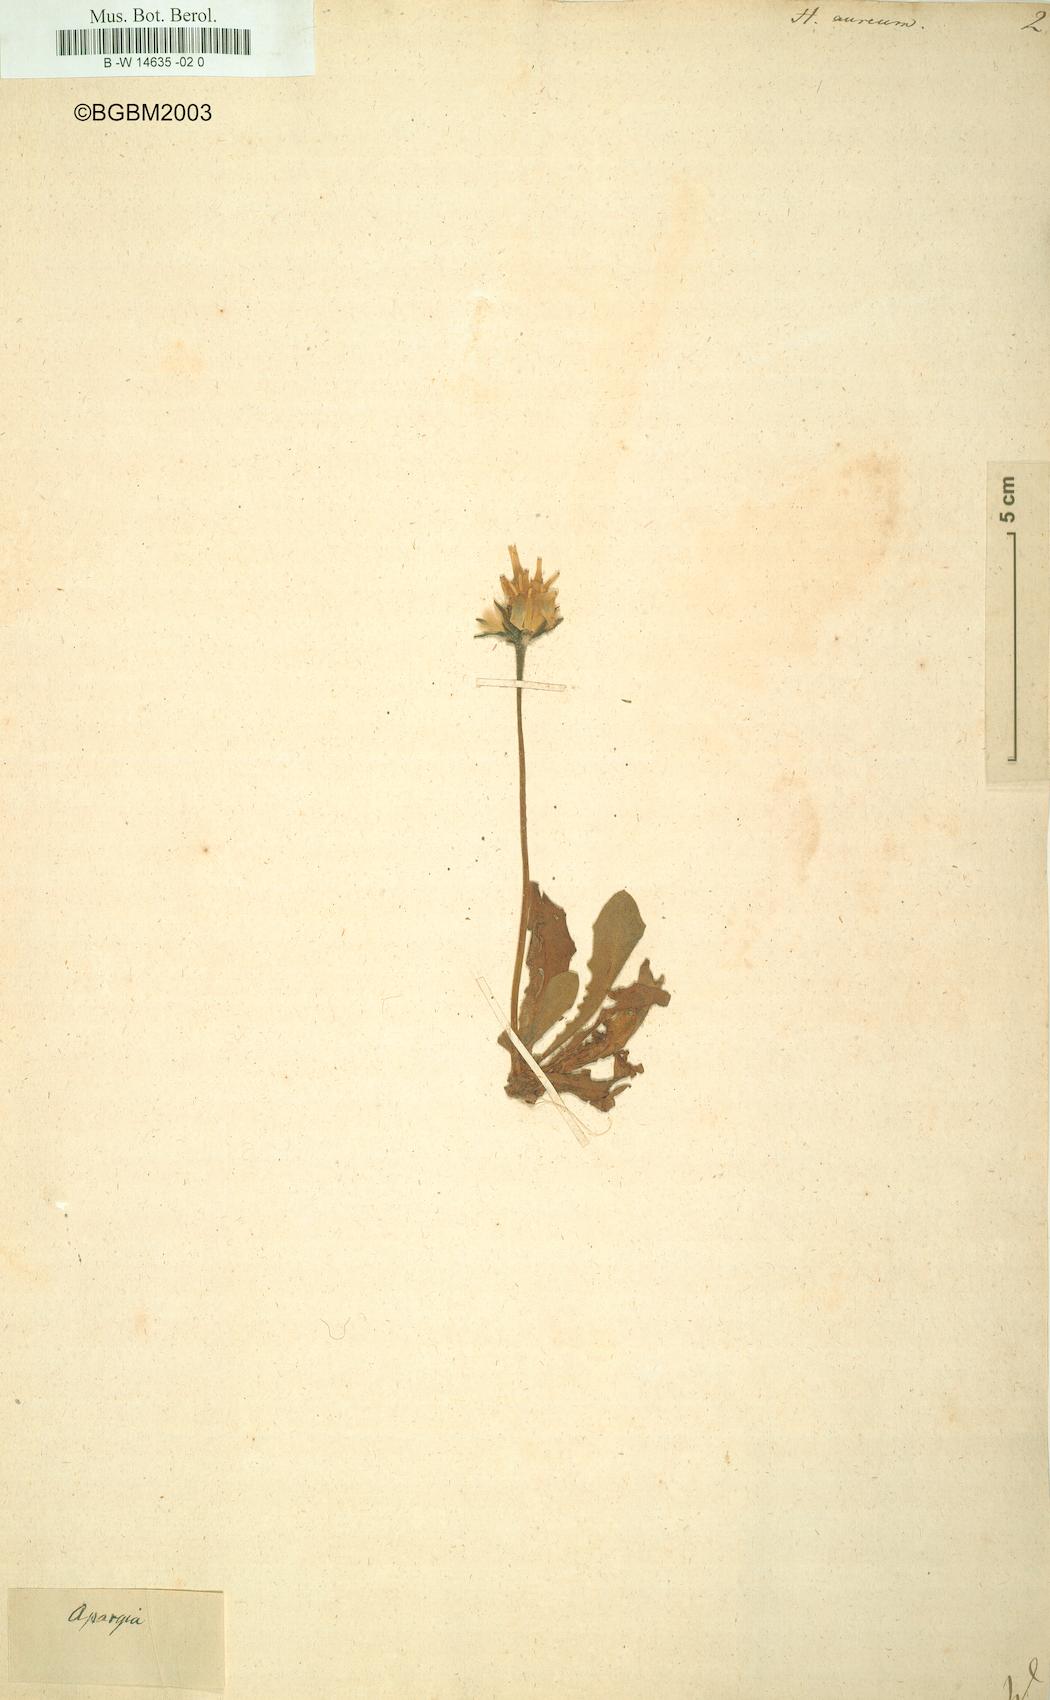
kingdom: Plantae
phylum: Tracheophyta
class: Magnoliopsida
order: Asterales
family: Asteraceae
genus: Hieracium
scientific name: Hieracium aureum
